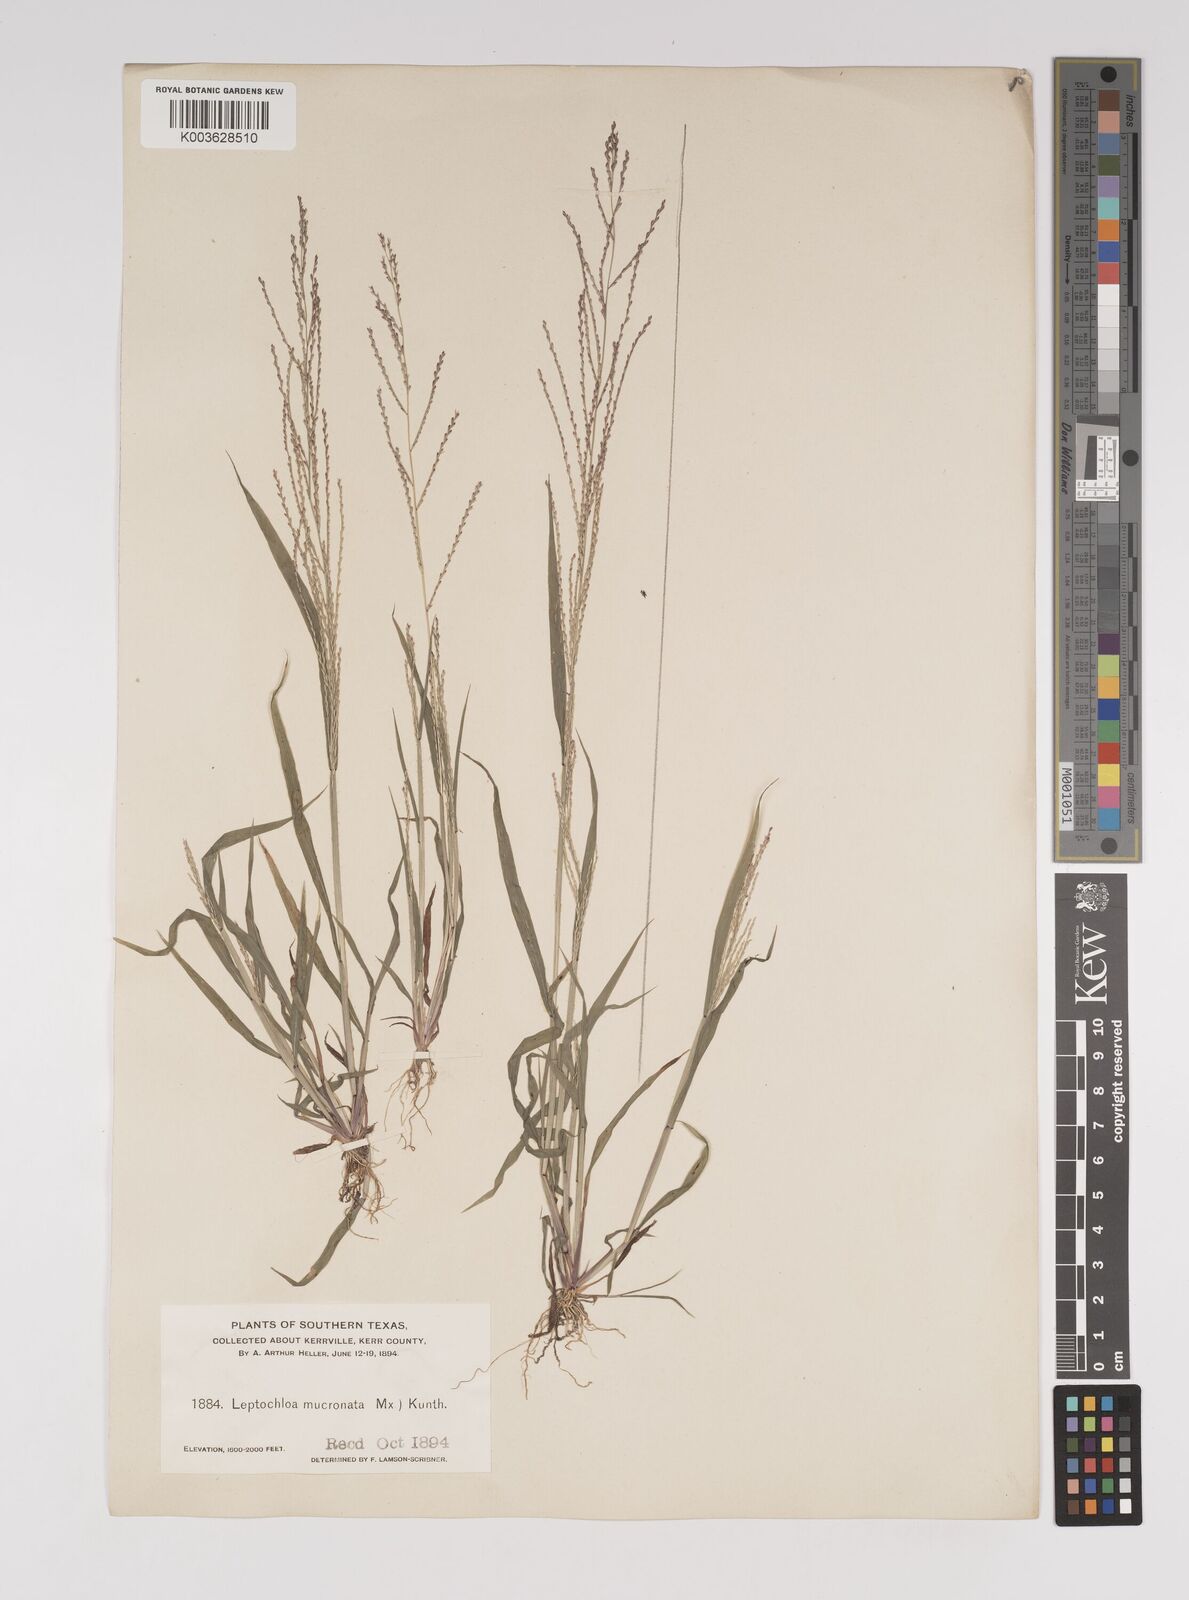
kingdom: Plantae
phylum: Tracheophyta
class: Liliopsida
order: Poales
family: Poaceae
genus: Leptochloa
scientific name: Leptochloa panicea
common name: Mucronate sprangletop
